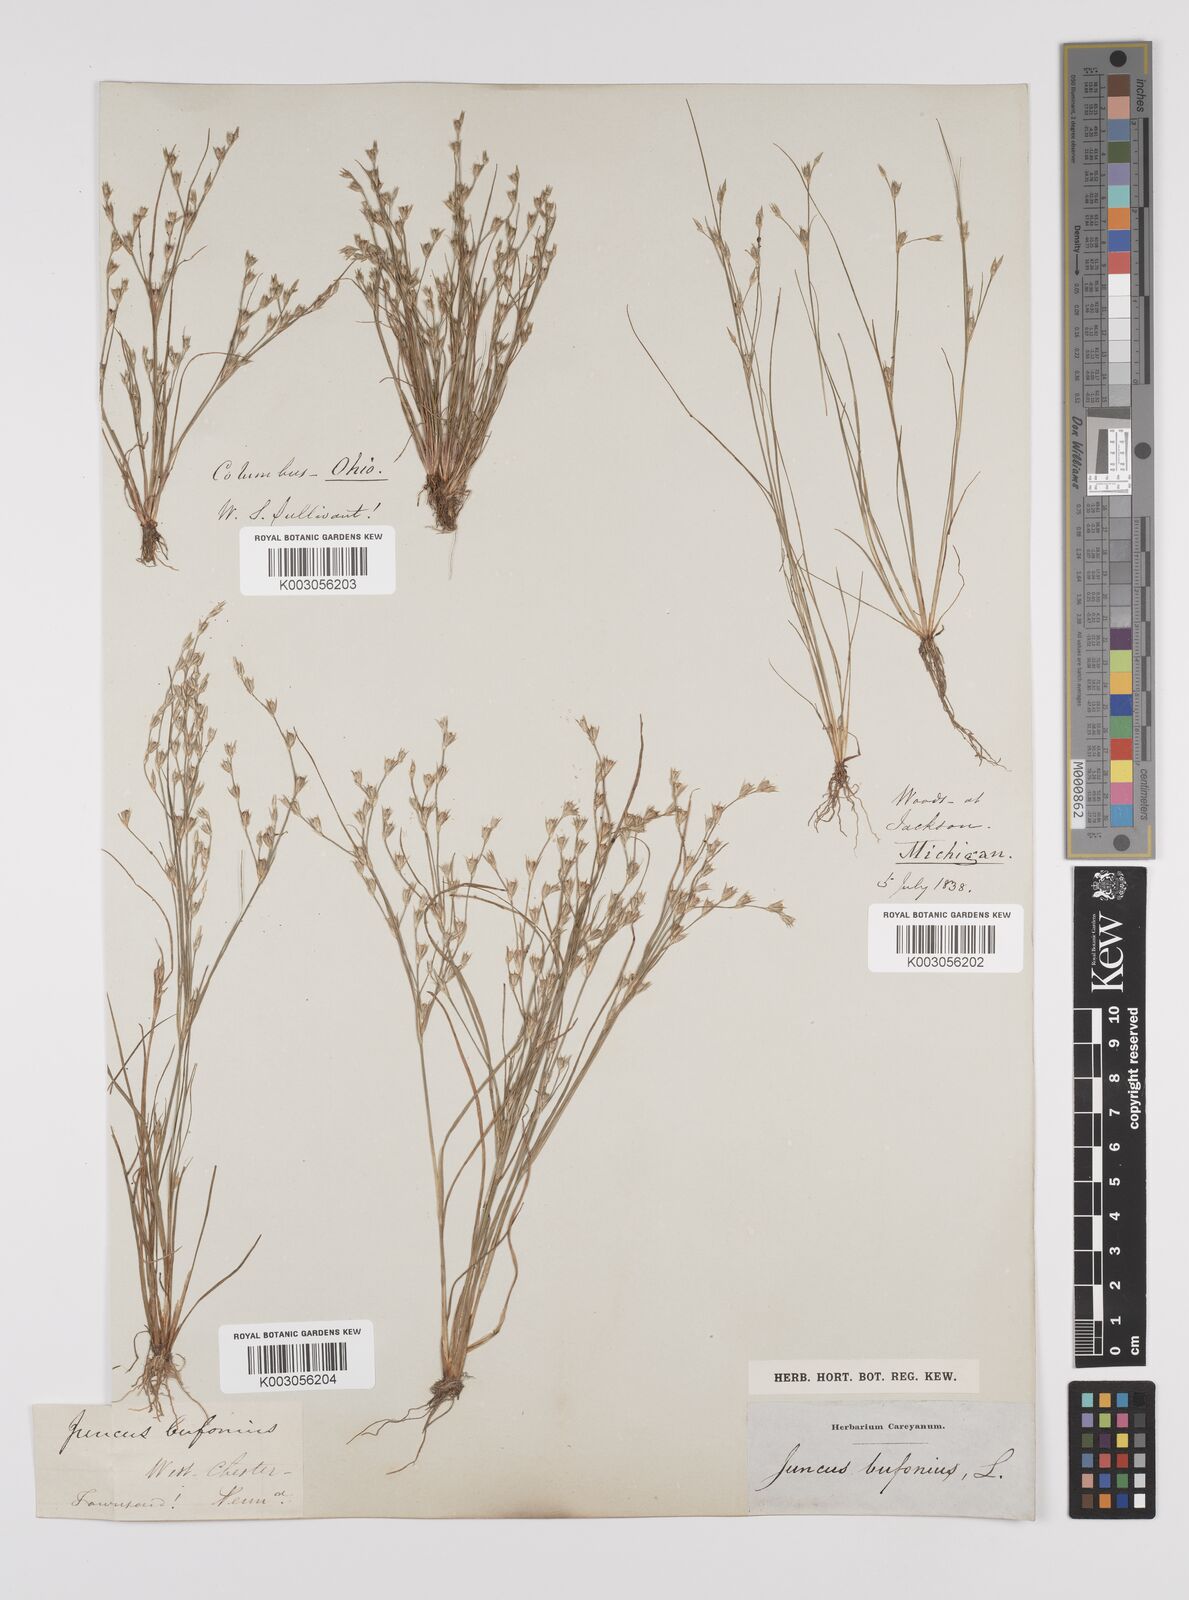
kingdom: Plantae
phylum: Tracheophyta
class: Liliopsida
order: Poales
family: Juncaceae
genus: Juncus
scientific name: Juncus bufonius
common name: Toad rush
